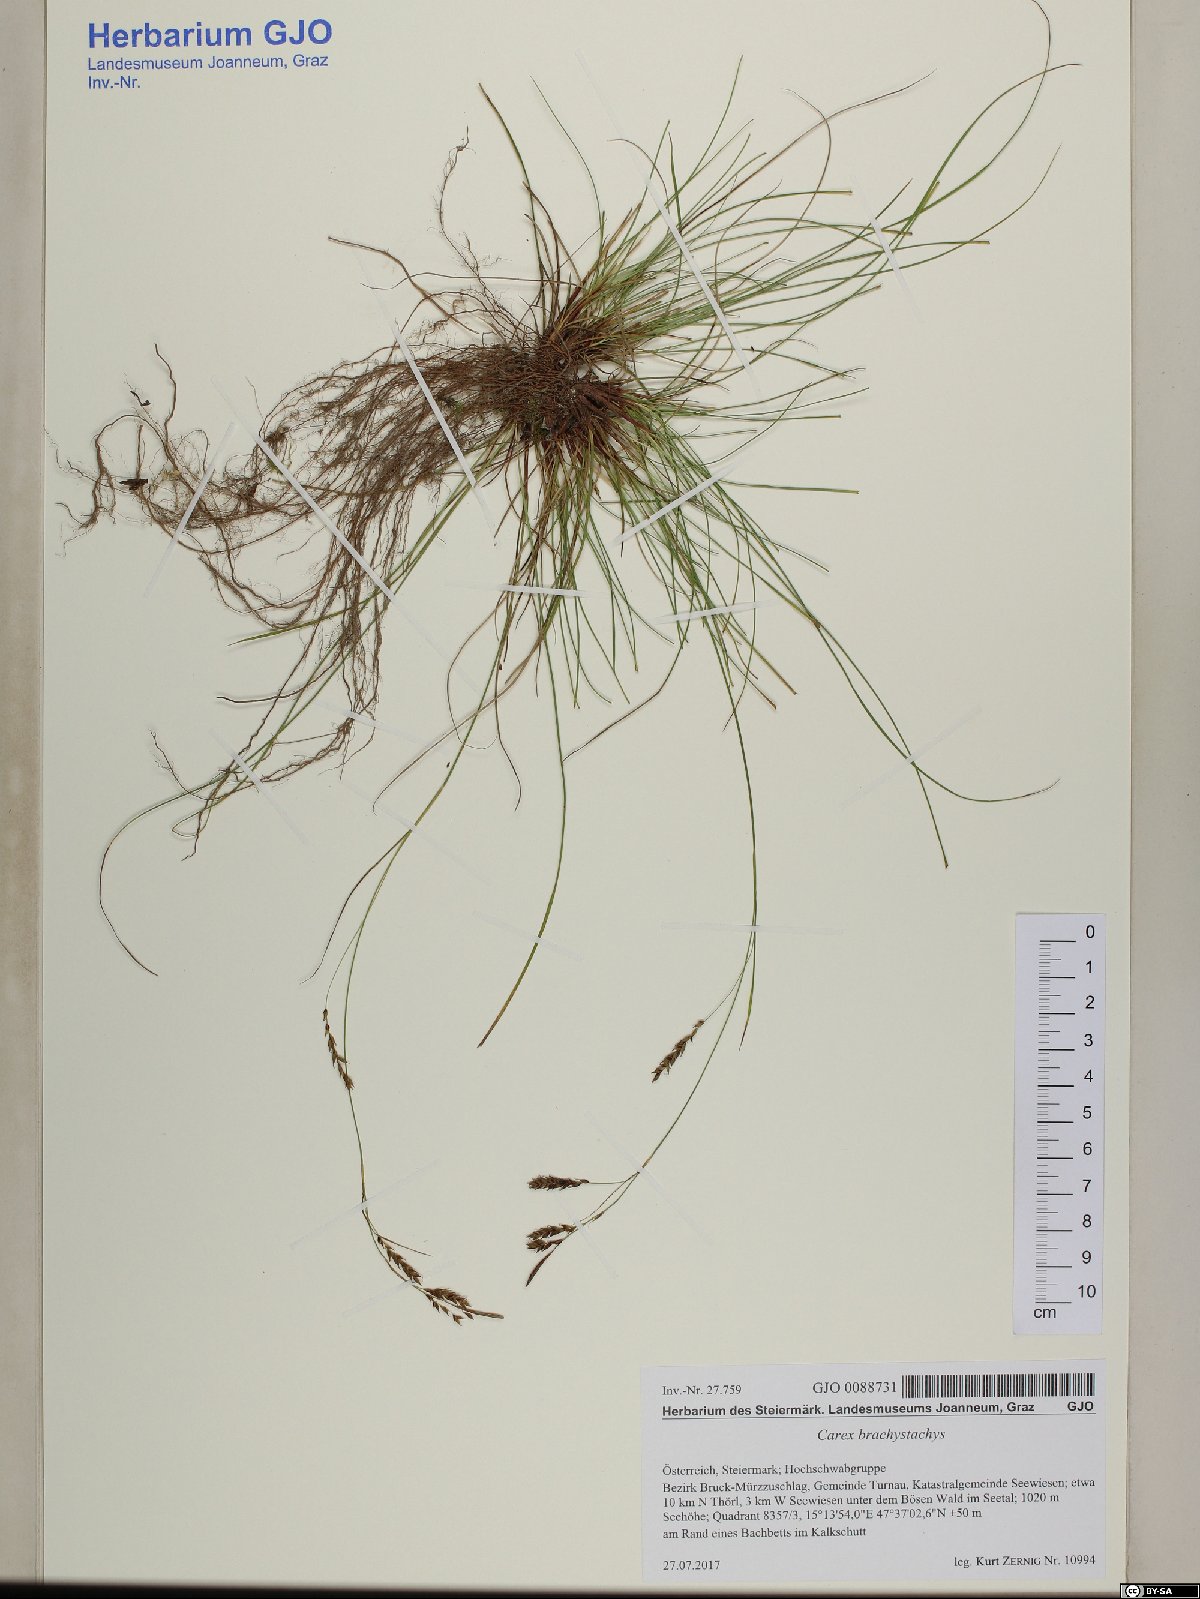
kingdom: Plantae
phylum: Tracheophyta
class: Liliopsida
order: Poales
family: Cyperaceae
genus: Carex
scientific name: Carex brachystachys
